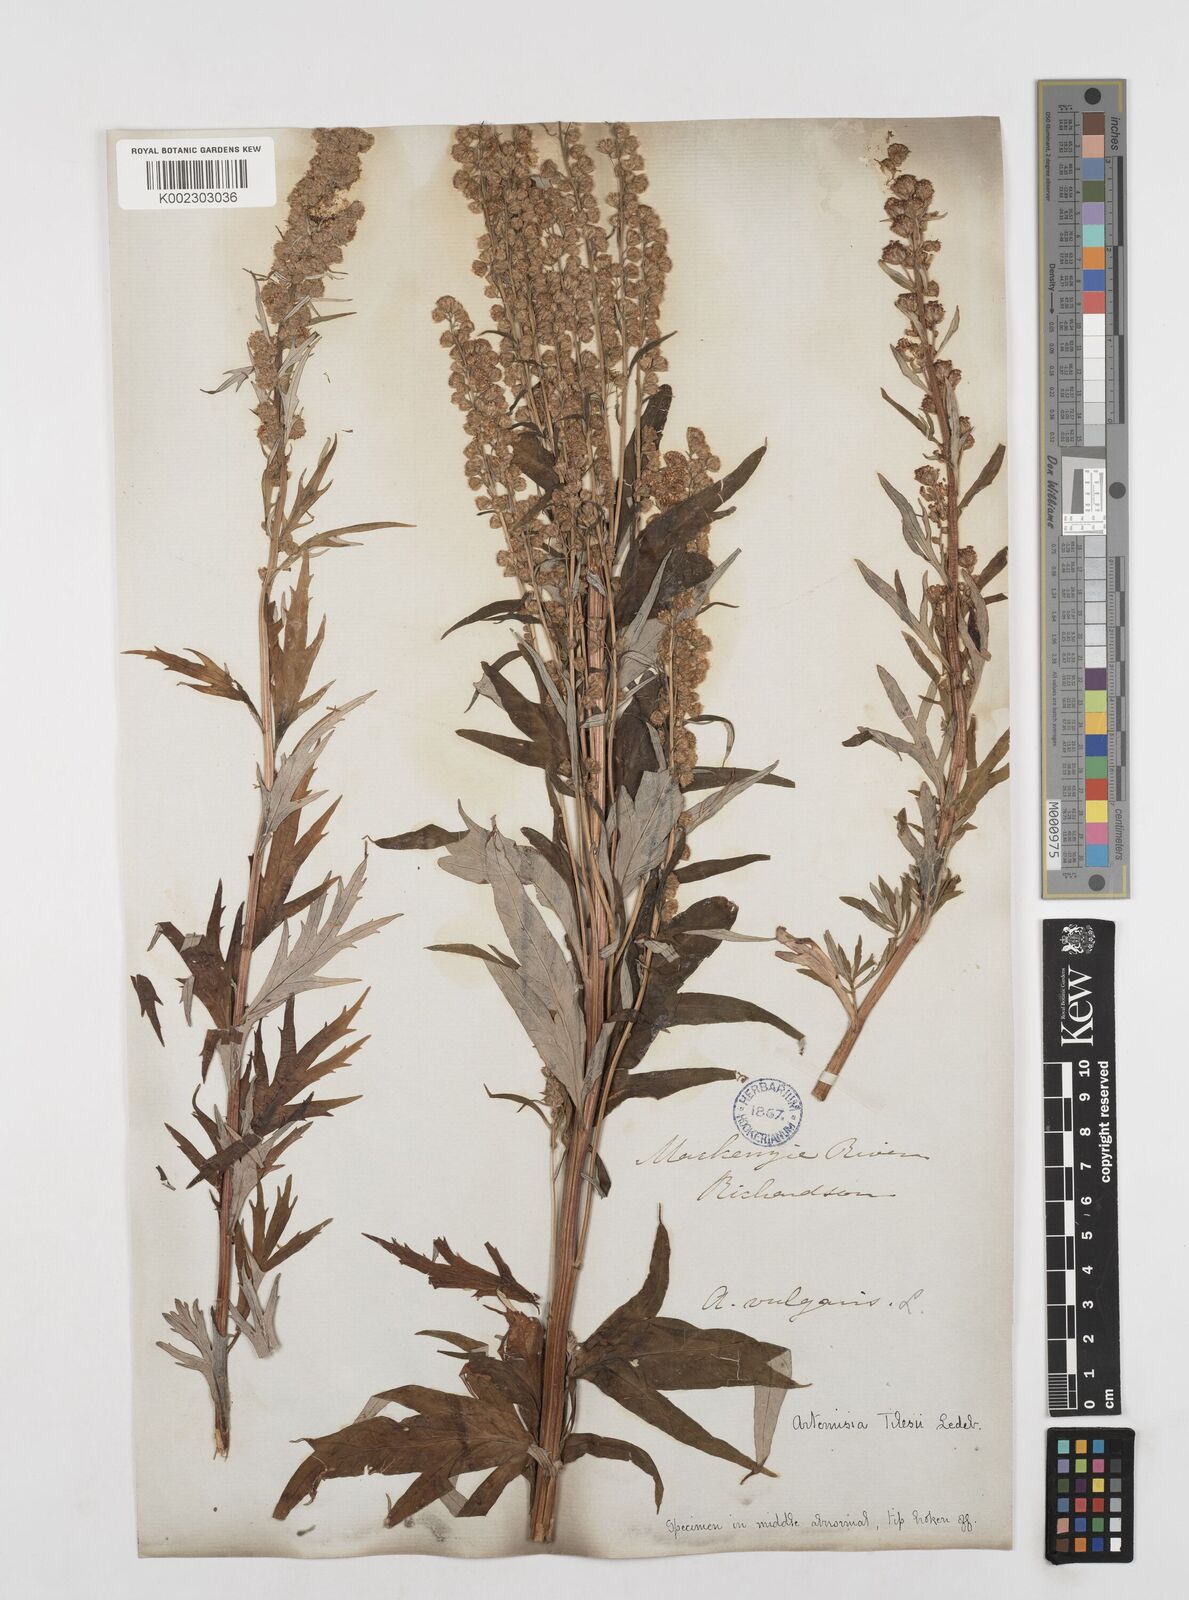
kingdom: Plantae
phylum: Tracheophyta
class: Magnoliopsida
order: Asterales
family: Asteraceae
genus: Artemisia
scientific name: Artemisia tilesii
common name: Aleutian mugwort
